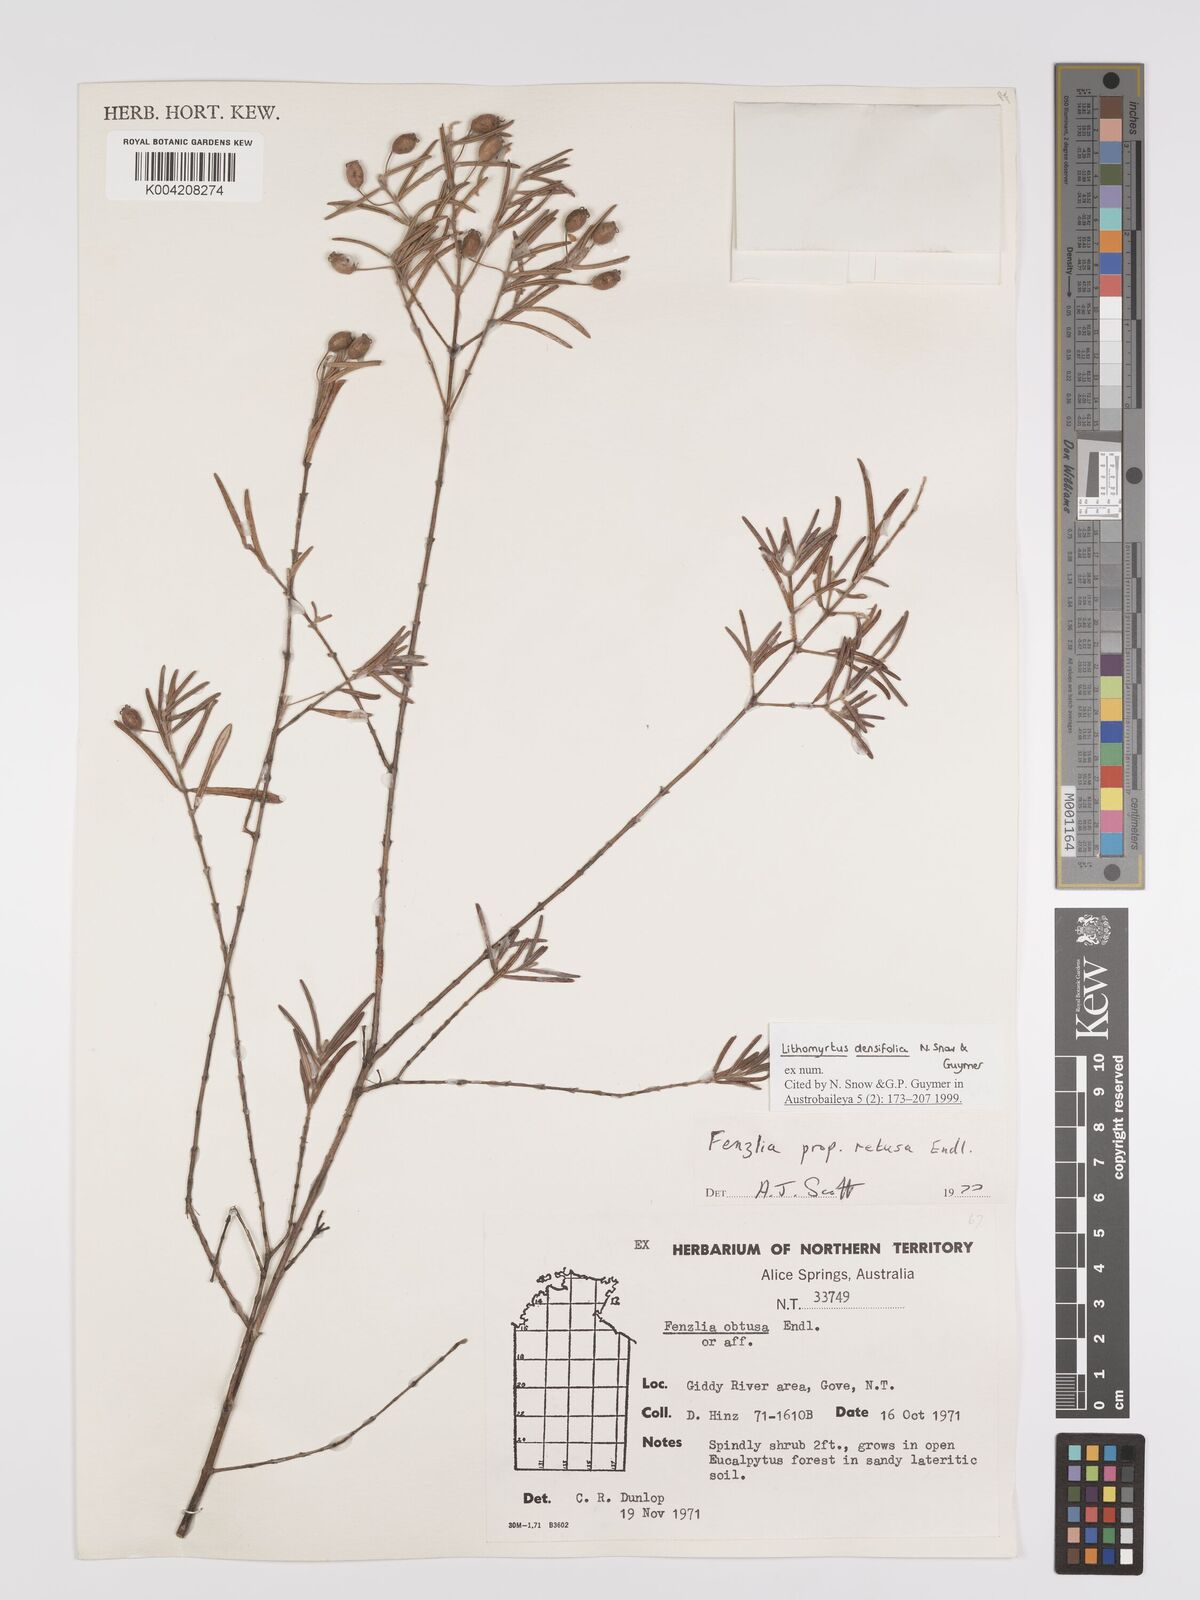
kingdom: Plantae
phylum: Tracheophyta
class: Magnoliopsida
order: Myrtales
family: Myrtaceae
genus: Lithomyrtus
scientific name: Lithomyrtus densifolia
